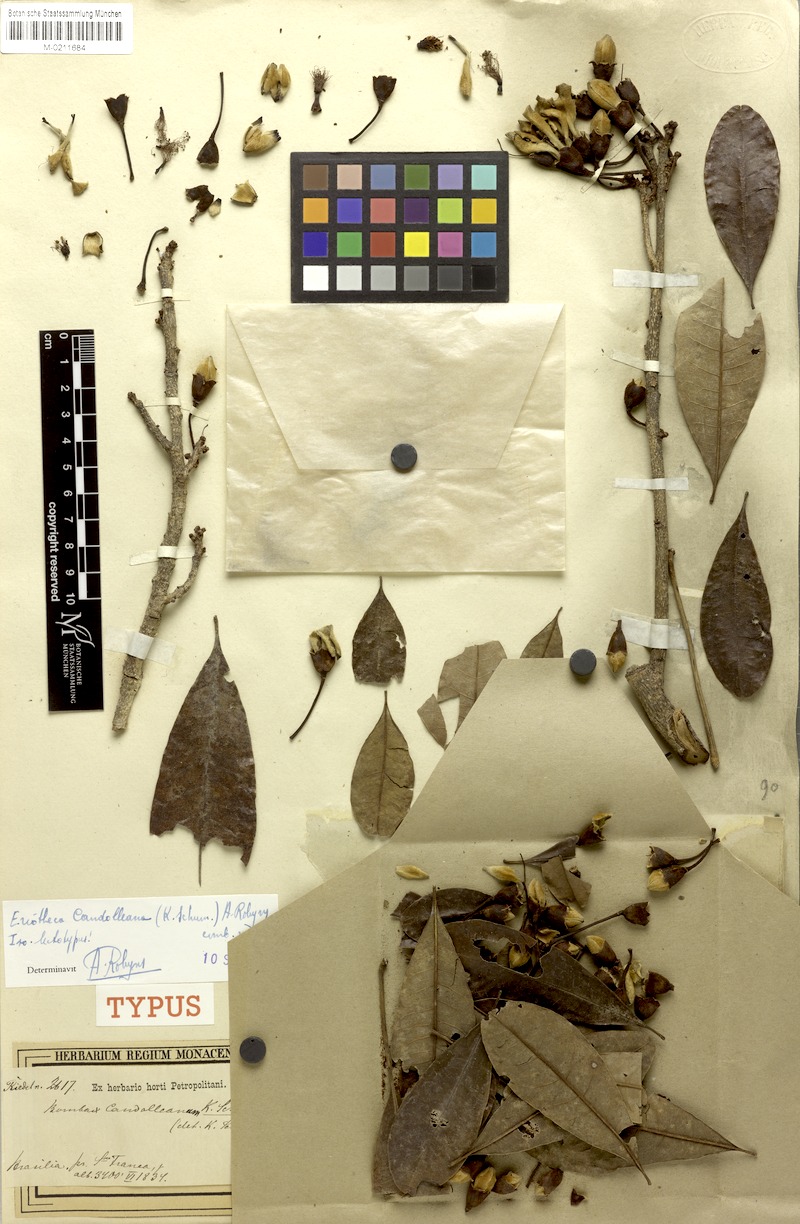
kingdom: Plantae
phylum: Tracheophyta
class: Magnoliopsida
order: Malvales
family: Malvaceae
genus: Eriotheca
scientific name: Eriotheca candolleana
